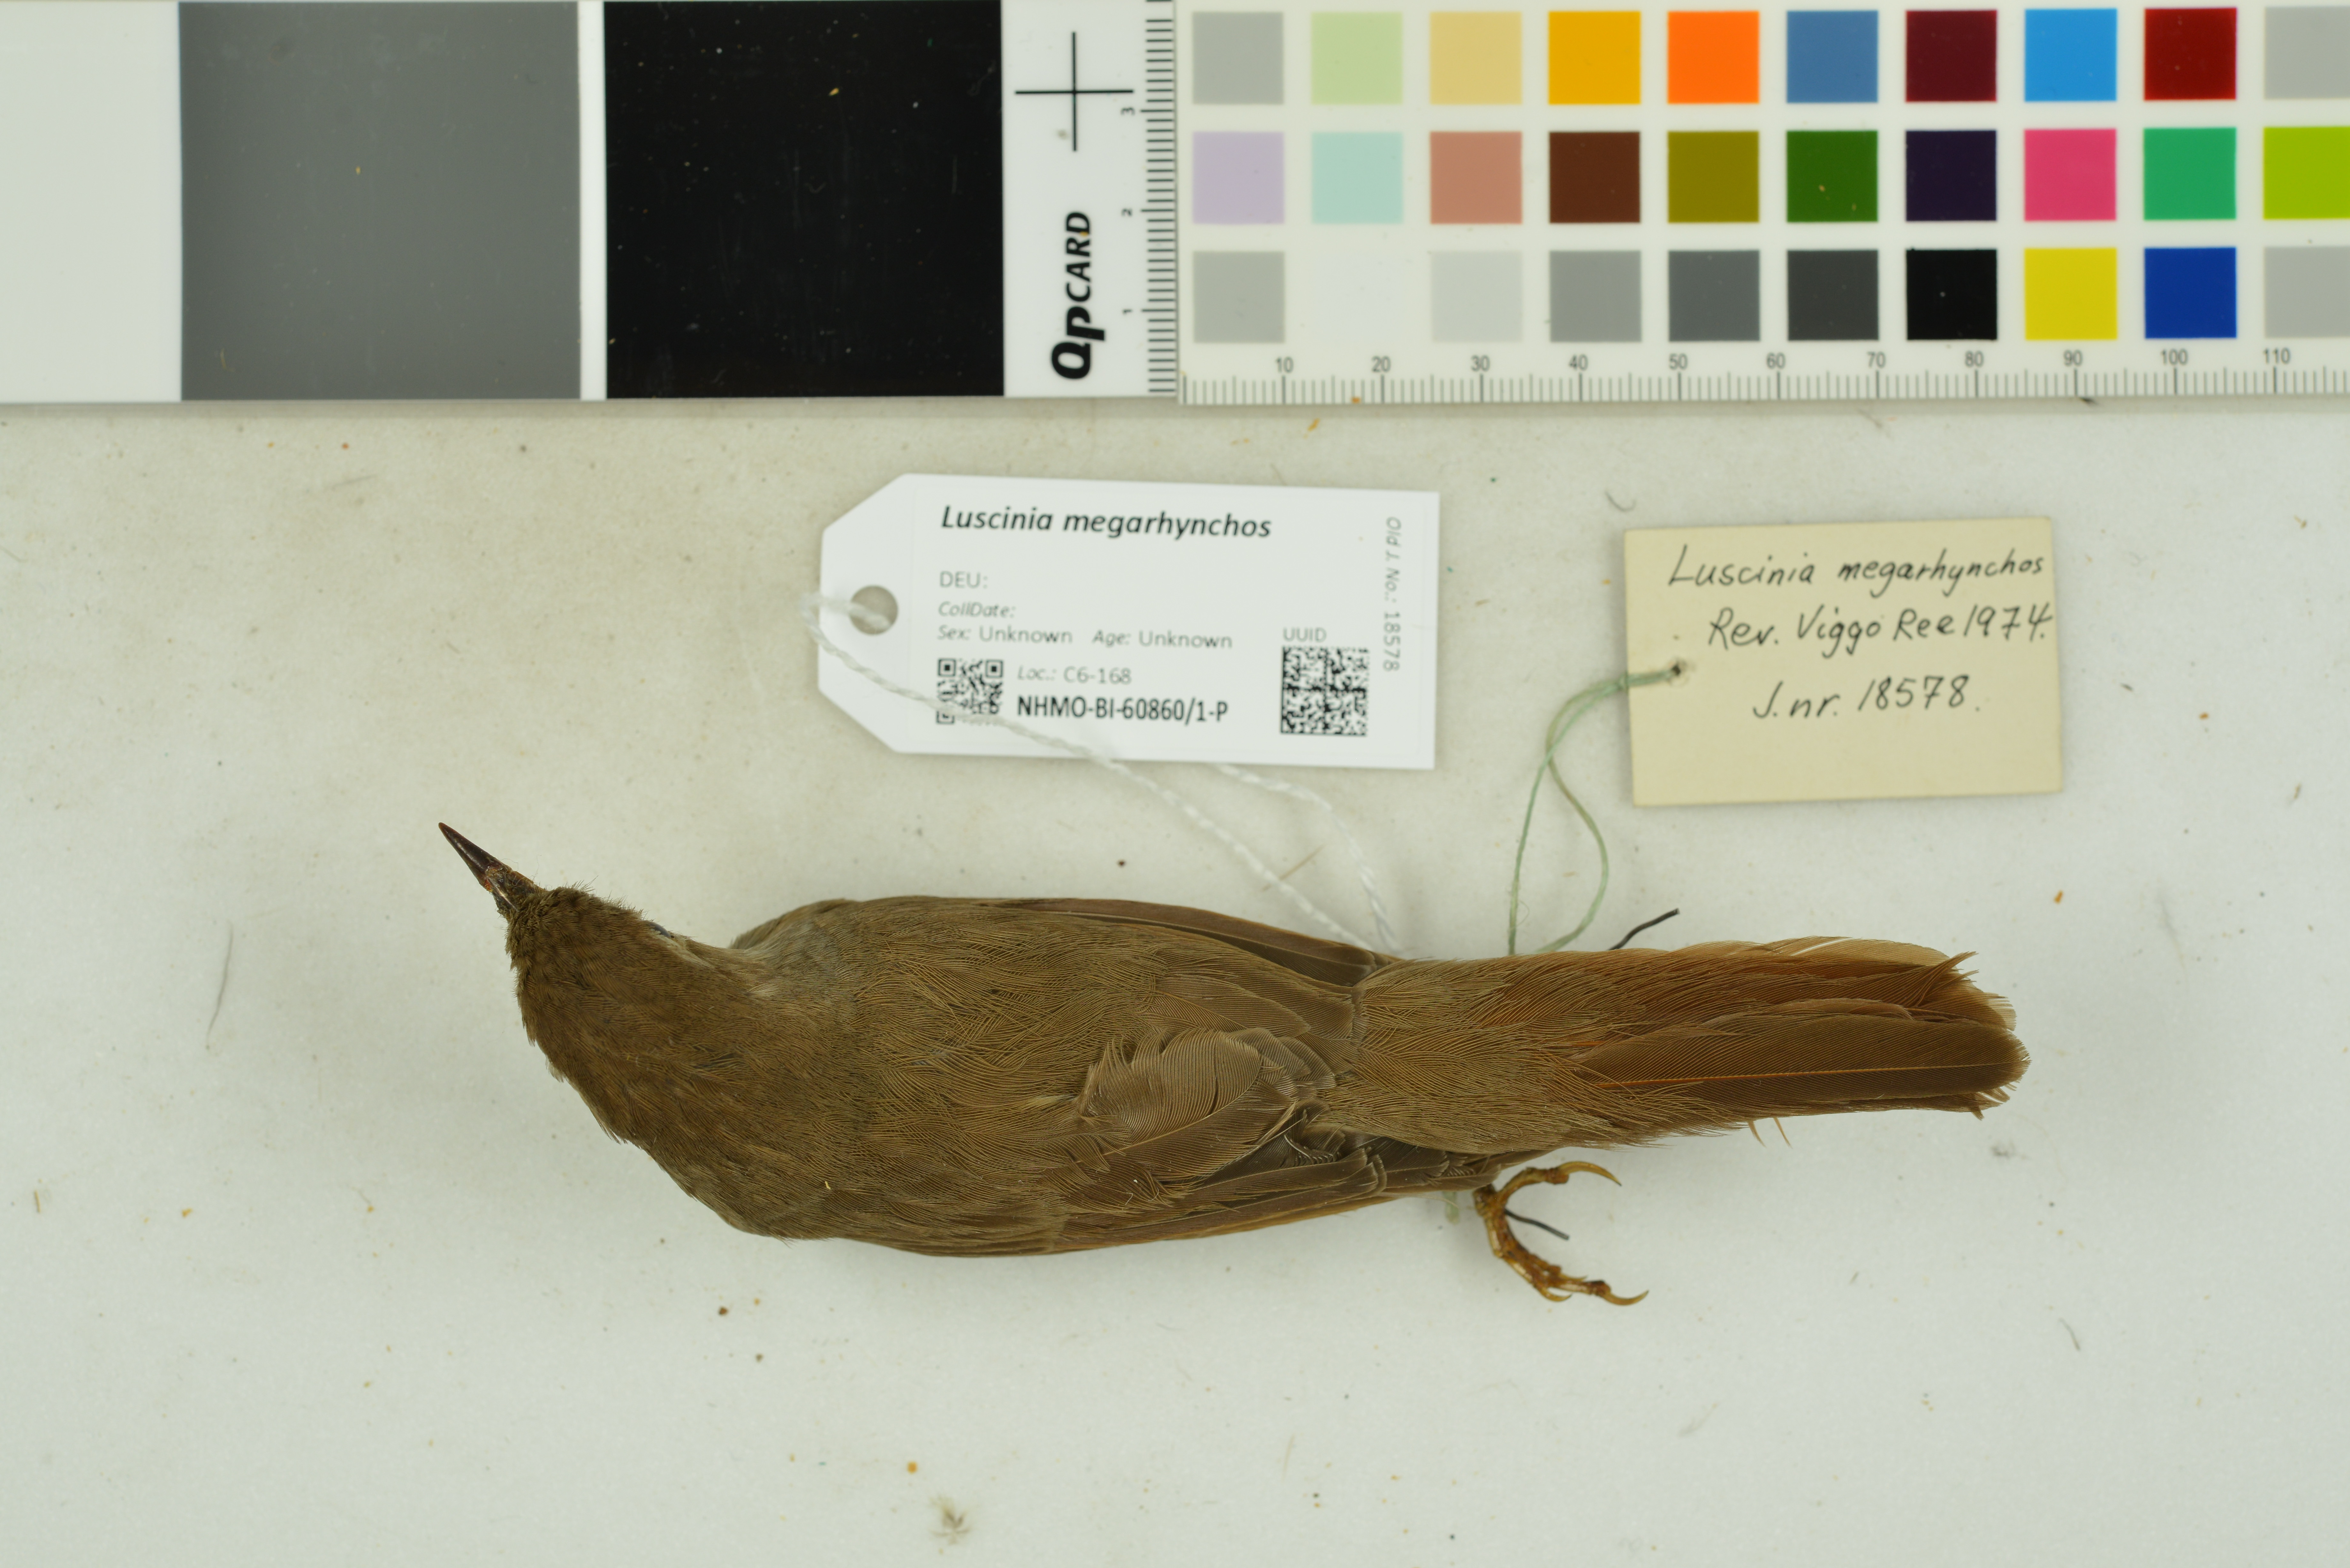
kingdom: Animalia
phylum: Chordata
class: Aves
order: Passeriformes
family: Muscicapidae
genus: Luscinia
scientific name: Luscinia megarhynchos
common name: Common nightingale
